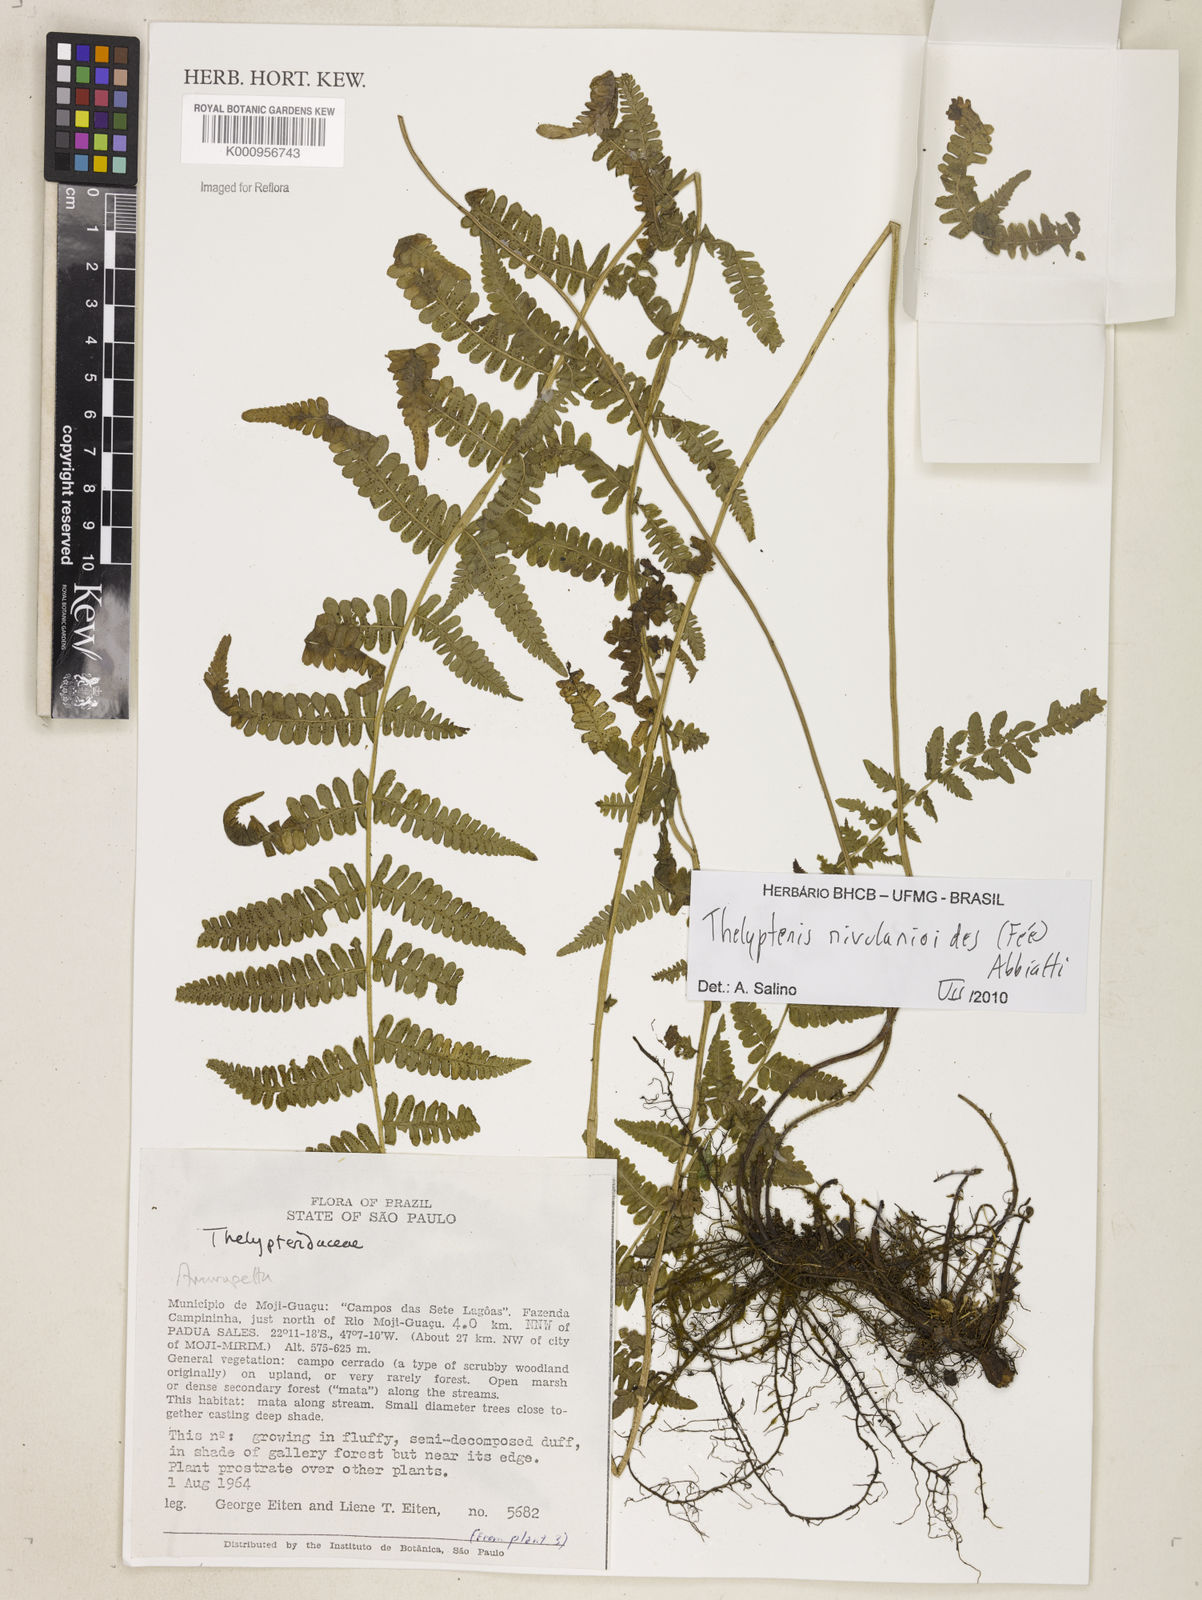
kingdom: Plantae
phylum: Tracheophyta
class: Polypodiopsida
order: Polypodiales
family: Thelypteridaceae
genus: Amauropelta
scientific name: Amauropelta rivularioides
